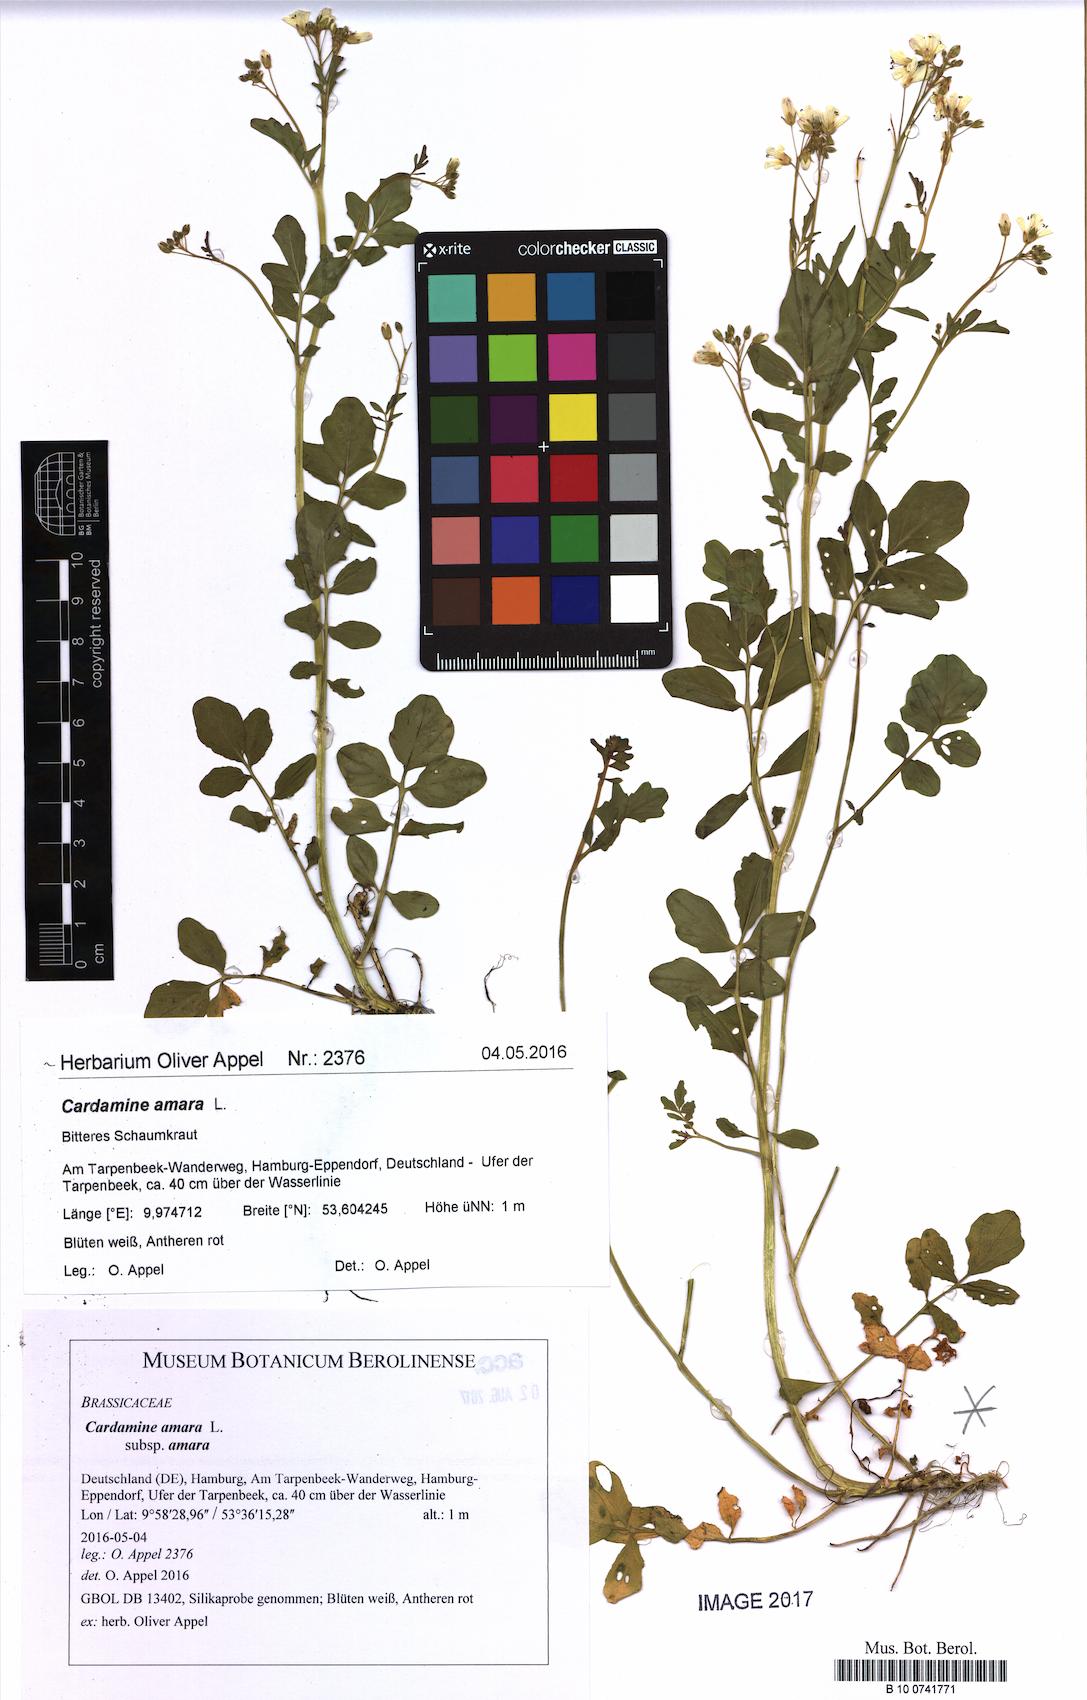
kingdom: Plantae
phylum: Tracheophyta
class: Magnoliopsida
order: Brassicales
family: Brassicaceae
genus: Cardamine
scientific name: Cardamine amara
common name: Large bitter-cress
